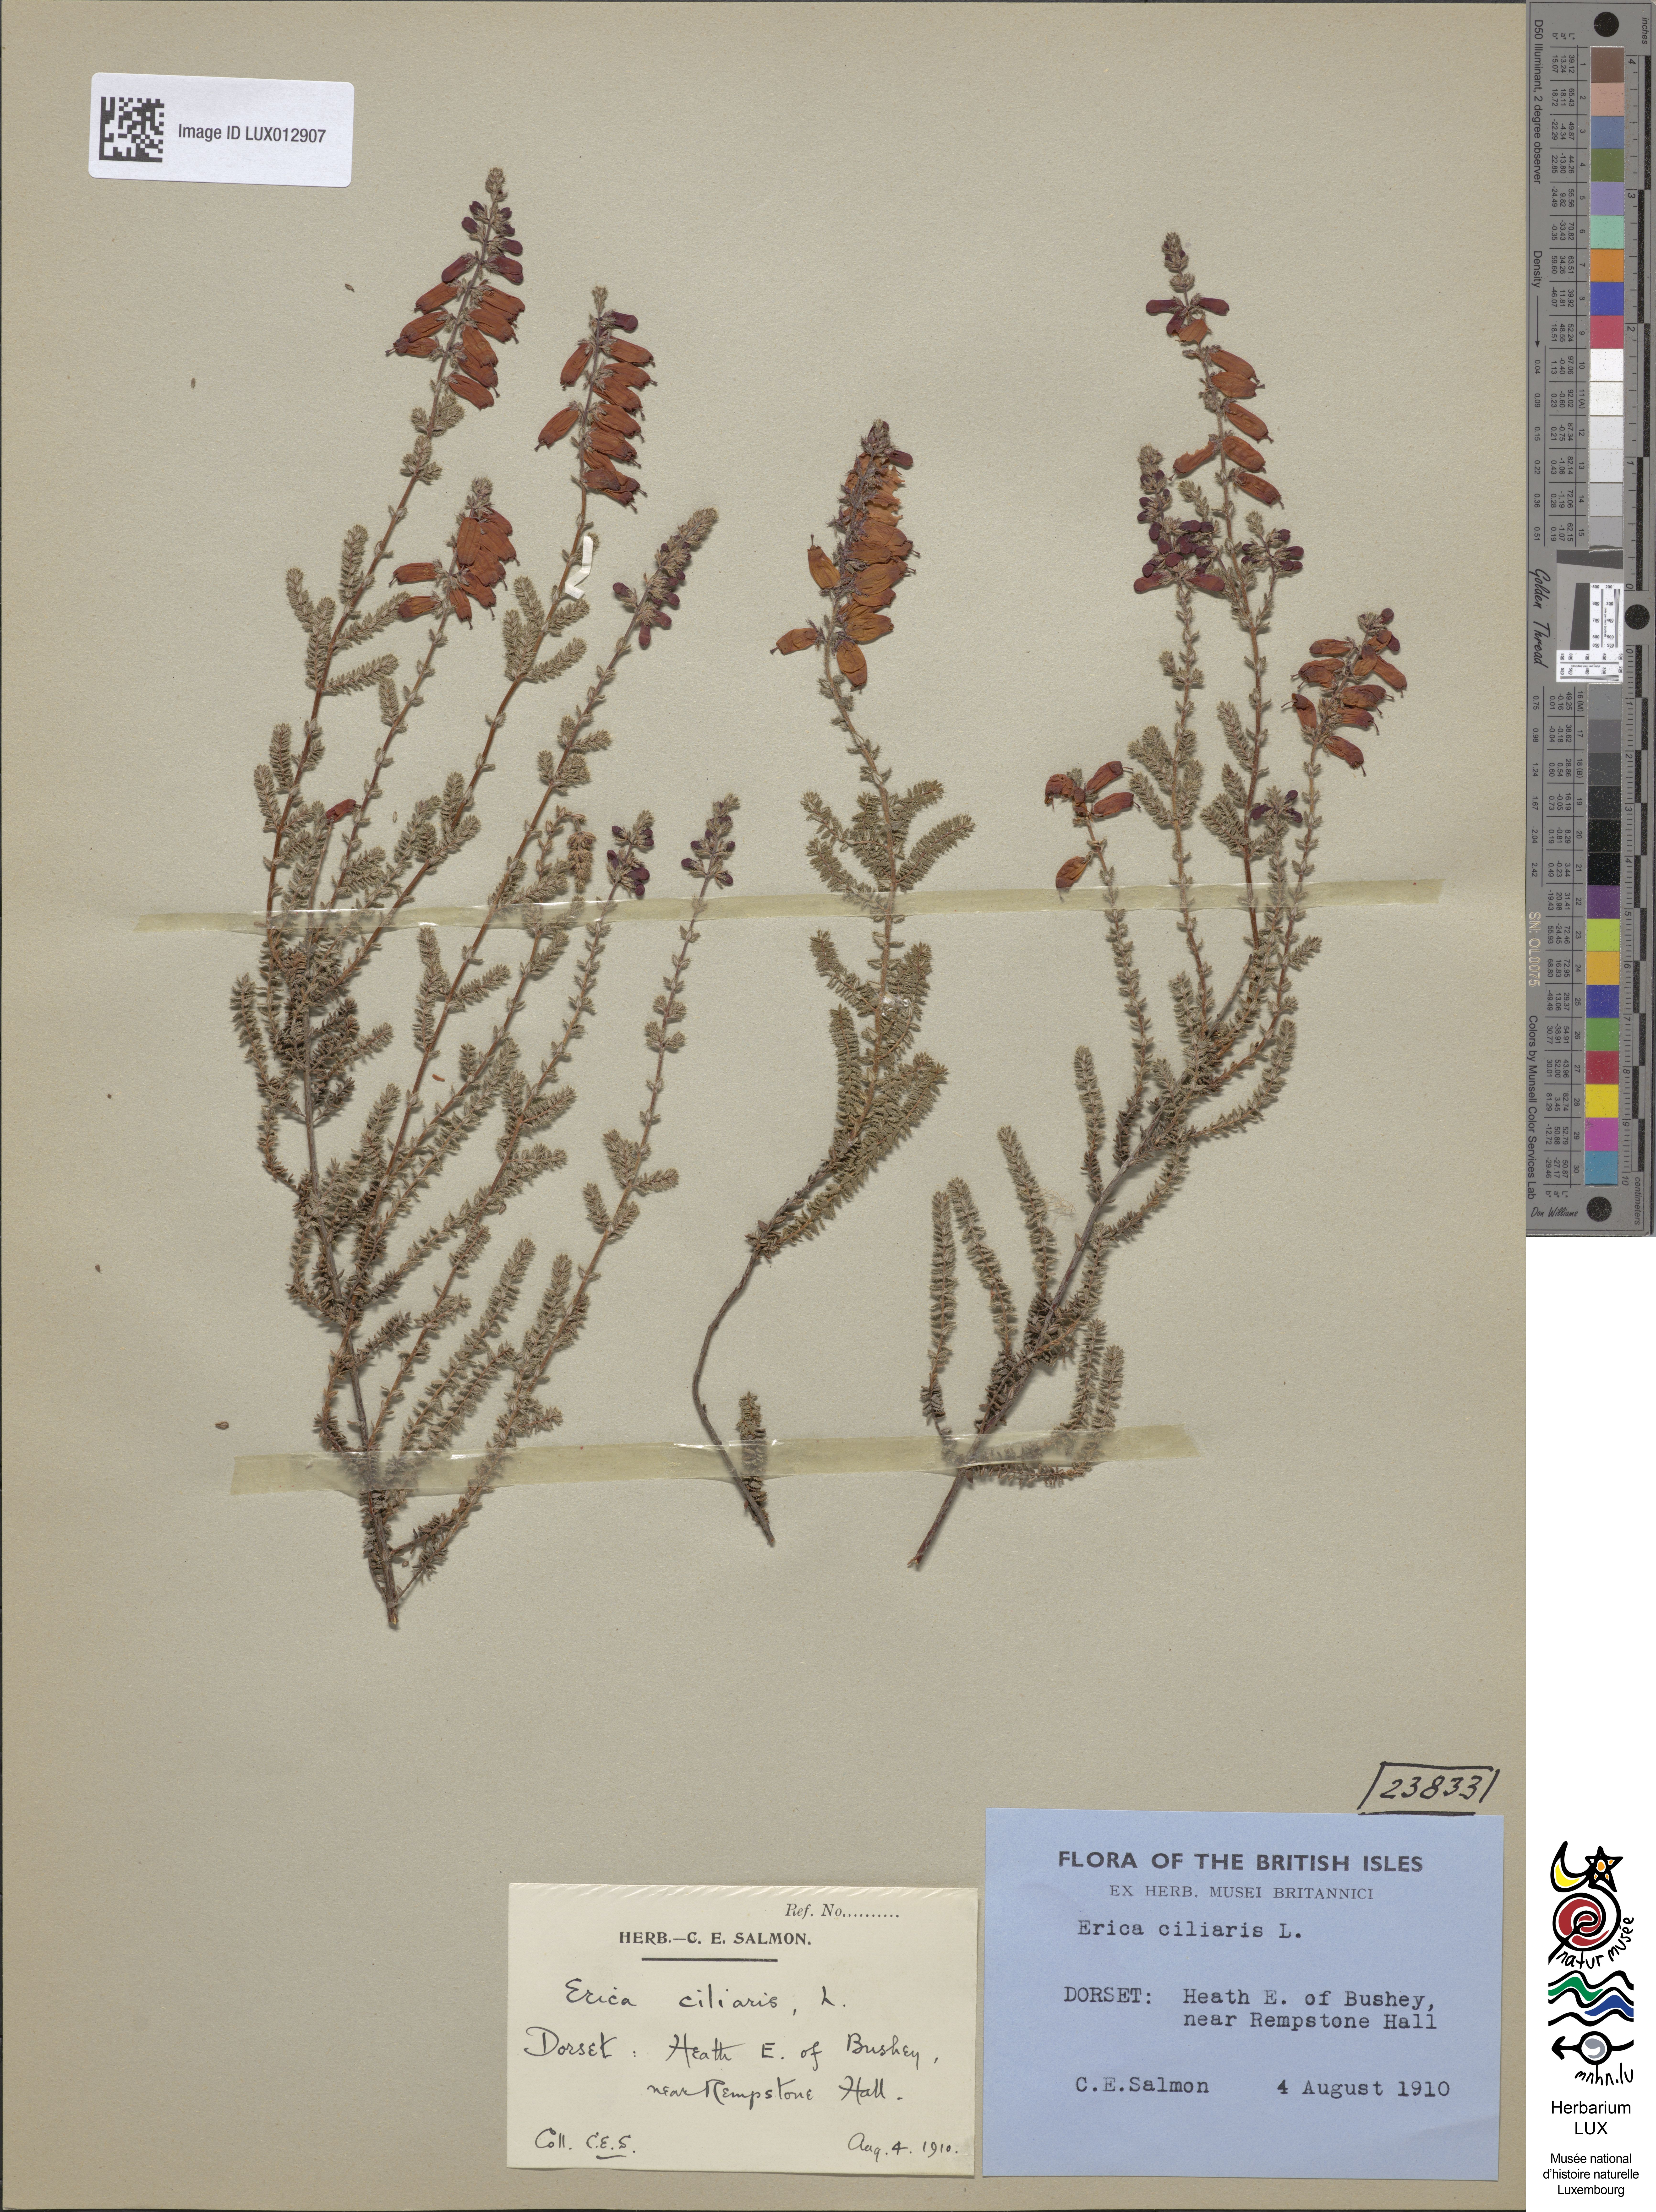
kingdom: Plantae
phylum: Tracheophyta
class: Magnoliopsida
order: Ericales
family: Ericaceae
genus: Erica
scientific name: Erica ciliaris
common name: Dorset heath
